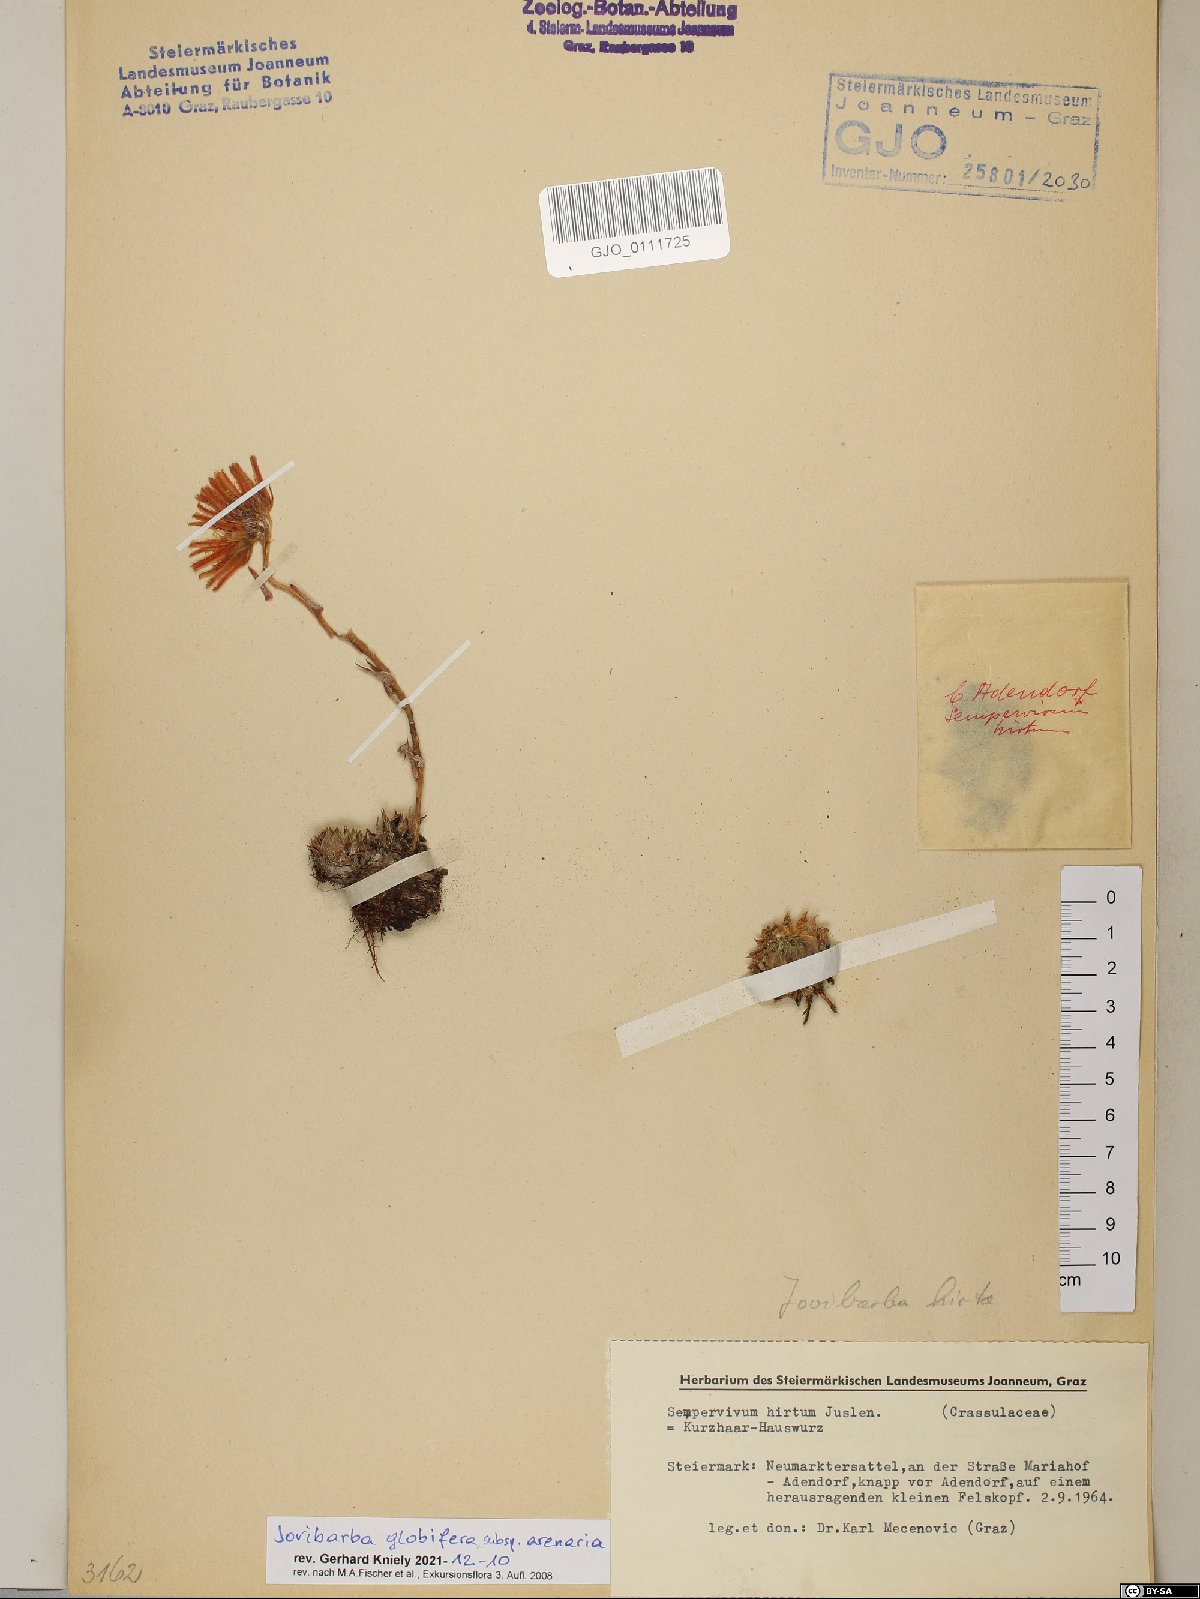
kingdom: Plantae
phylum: Tracheophyta
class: Magnoliopsida
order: Saxifragales
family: Crassulaceae
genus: Sempervivum
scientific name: Sempervivum globiferum
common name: Rolling hen-and-chicks
